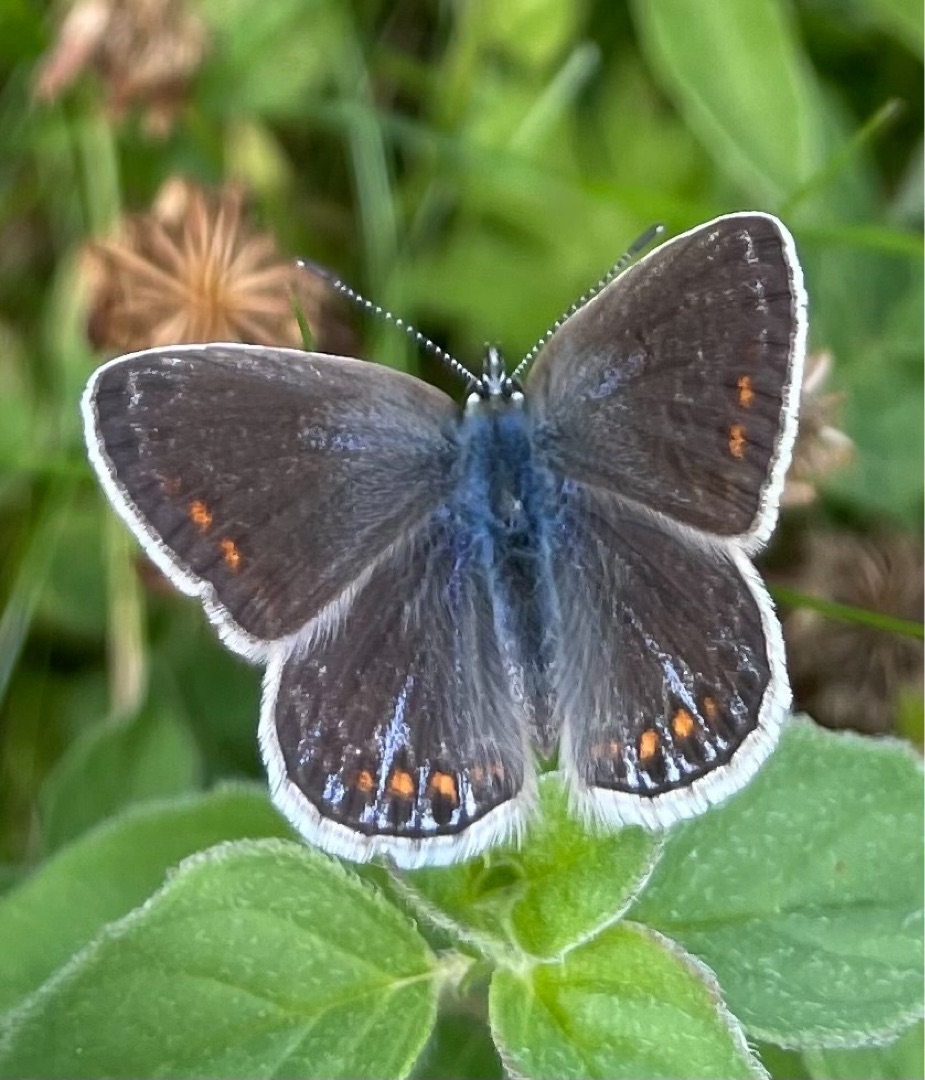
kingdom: Animalia
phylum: Arthropoda
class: Insecta
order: Lepidoptera
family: Lycaenidae
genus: Polyommatus
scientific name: Polyommatus icarus
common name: Almindelig blåfugl
